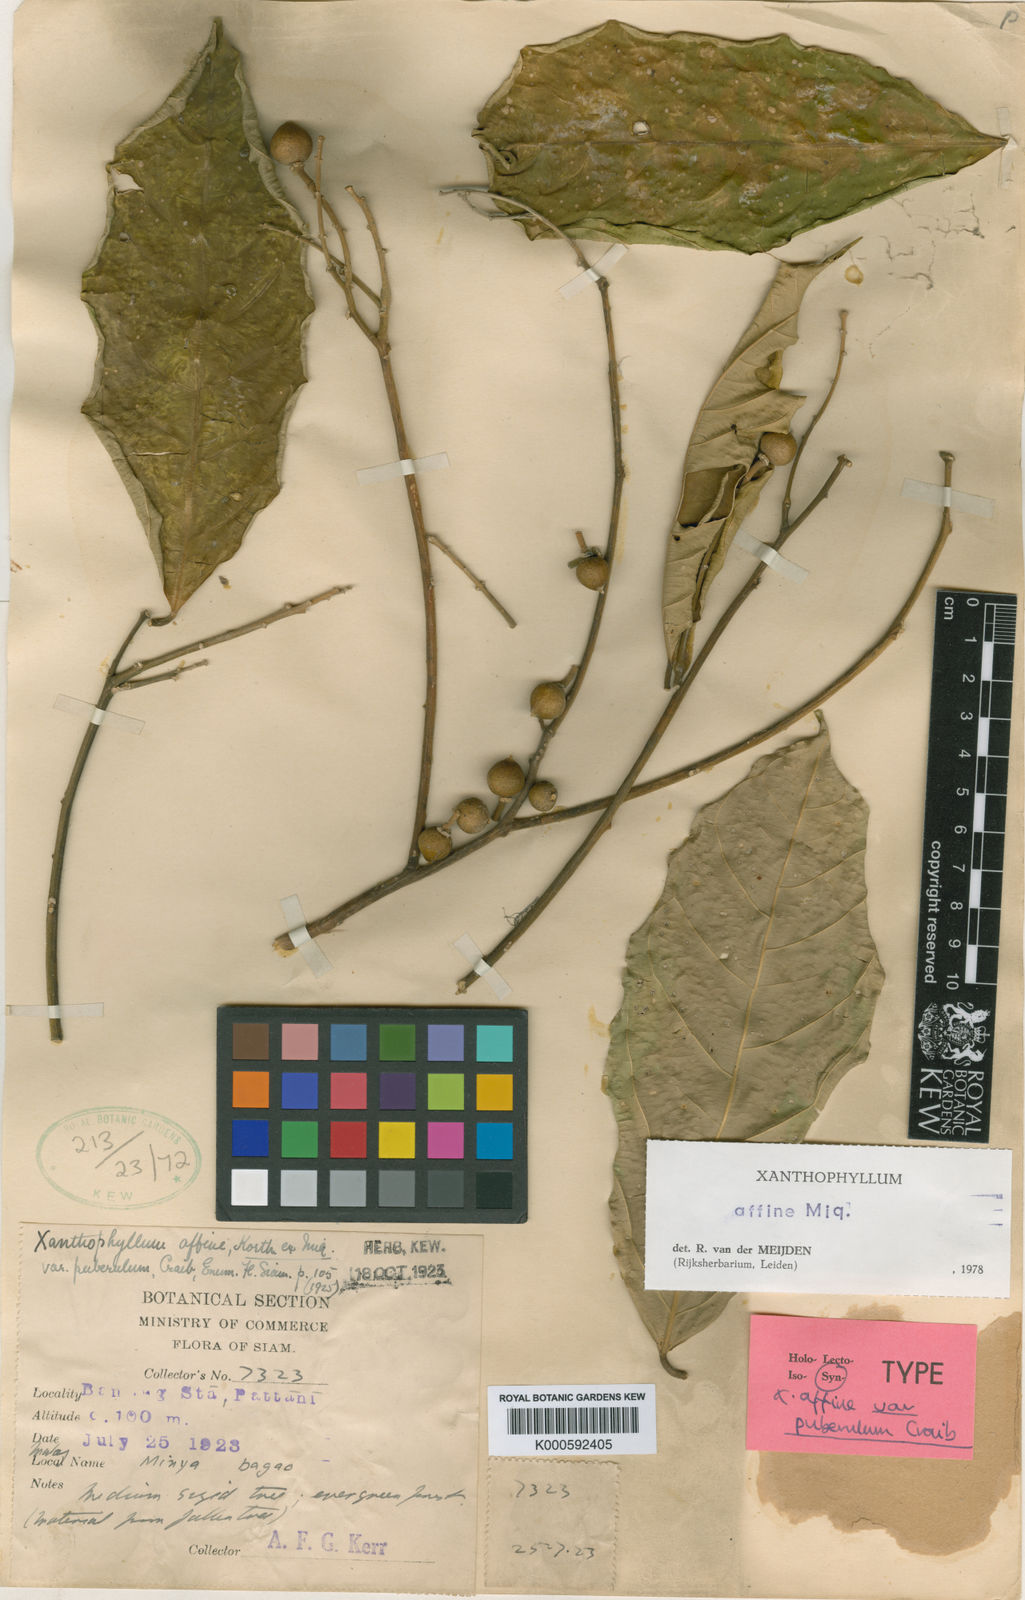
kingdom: Plantae
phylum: Tracheophyta
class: Magnoliopsida
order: Fabales
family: Polygalaceae
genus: Xanthophyllum
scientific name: Xanthophyllum flavescens
